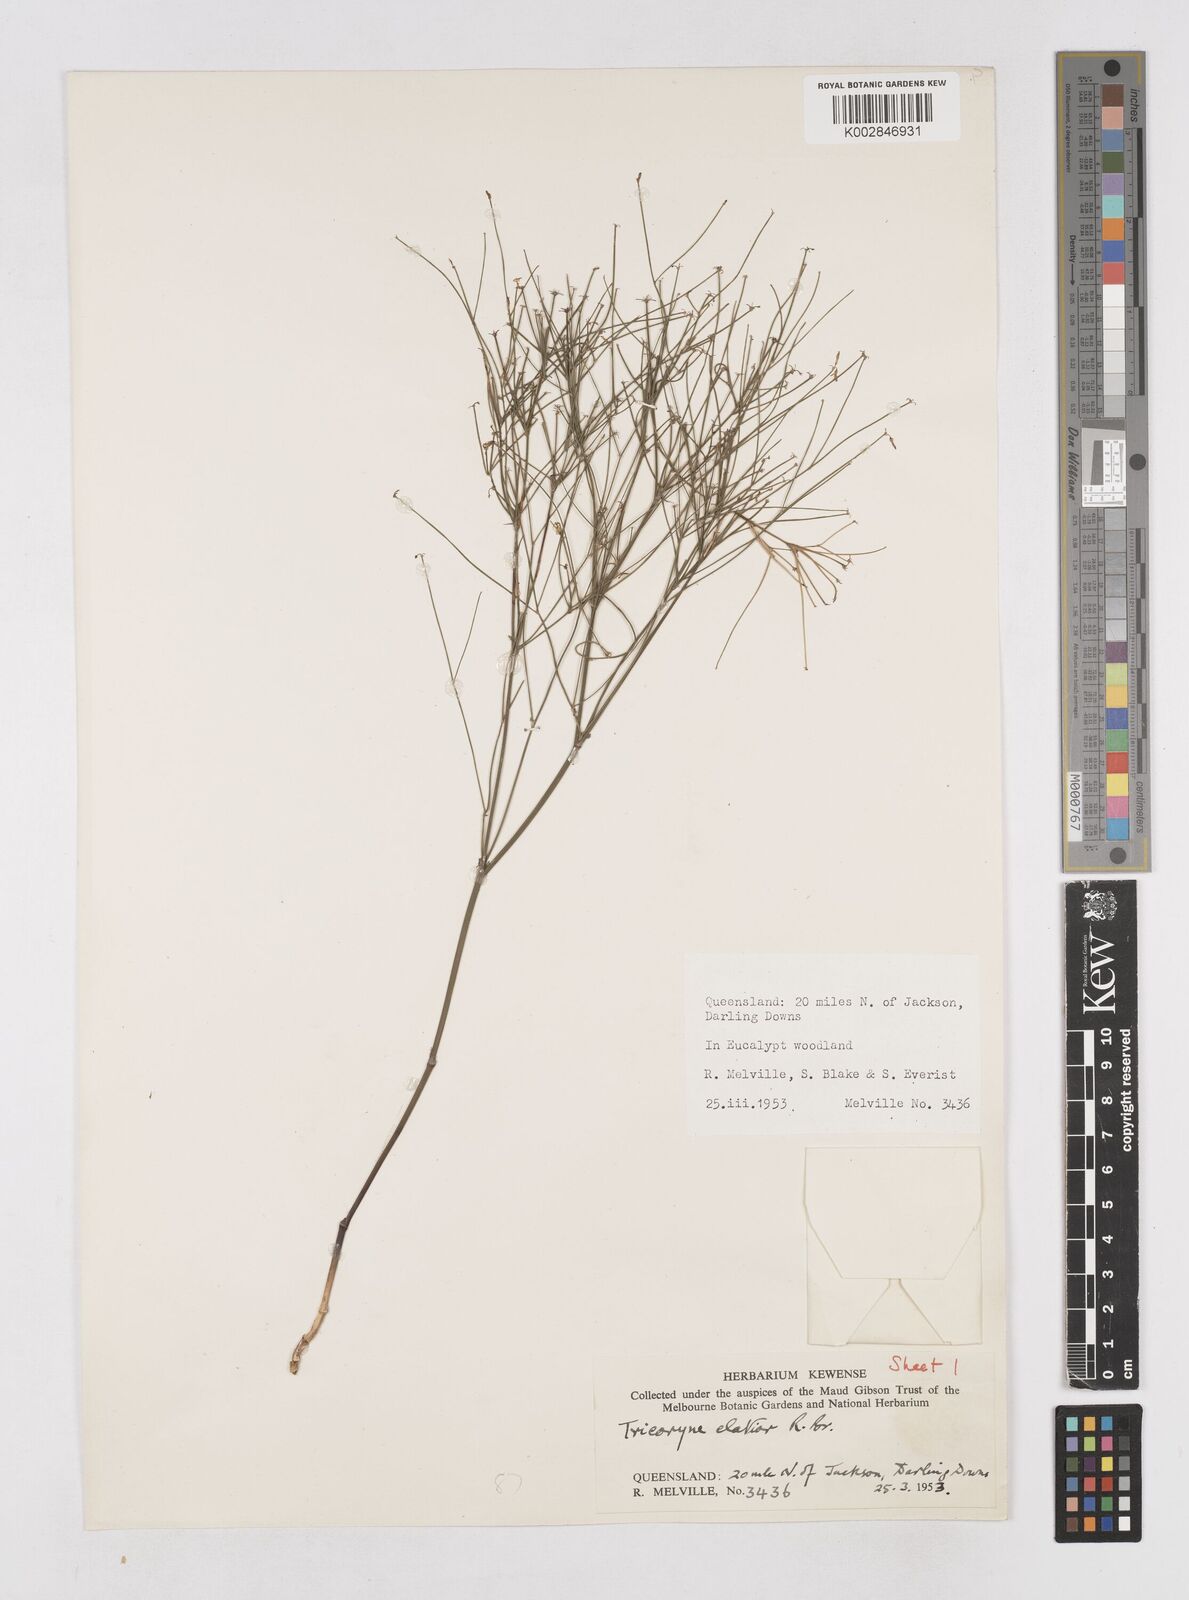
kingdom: Plantae
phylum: Tracheophyta
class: Liliopsida
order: Asparagales
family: Asphodelaceae
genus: Tricoryne
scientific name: Tricoryne elatior
